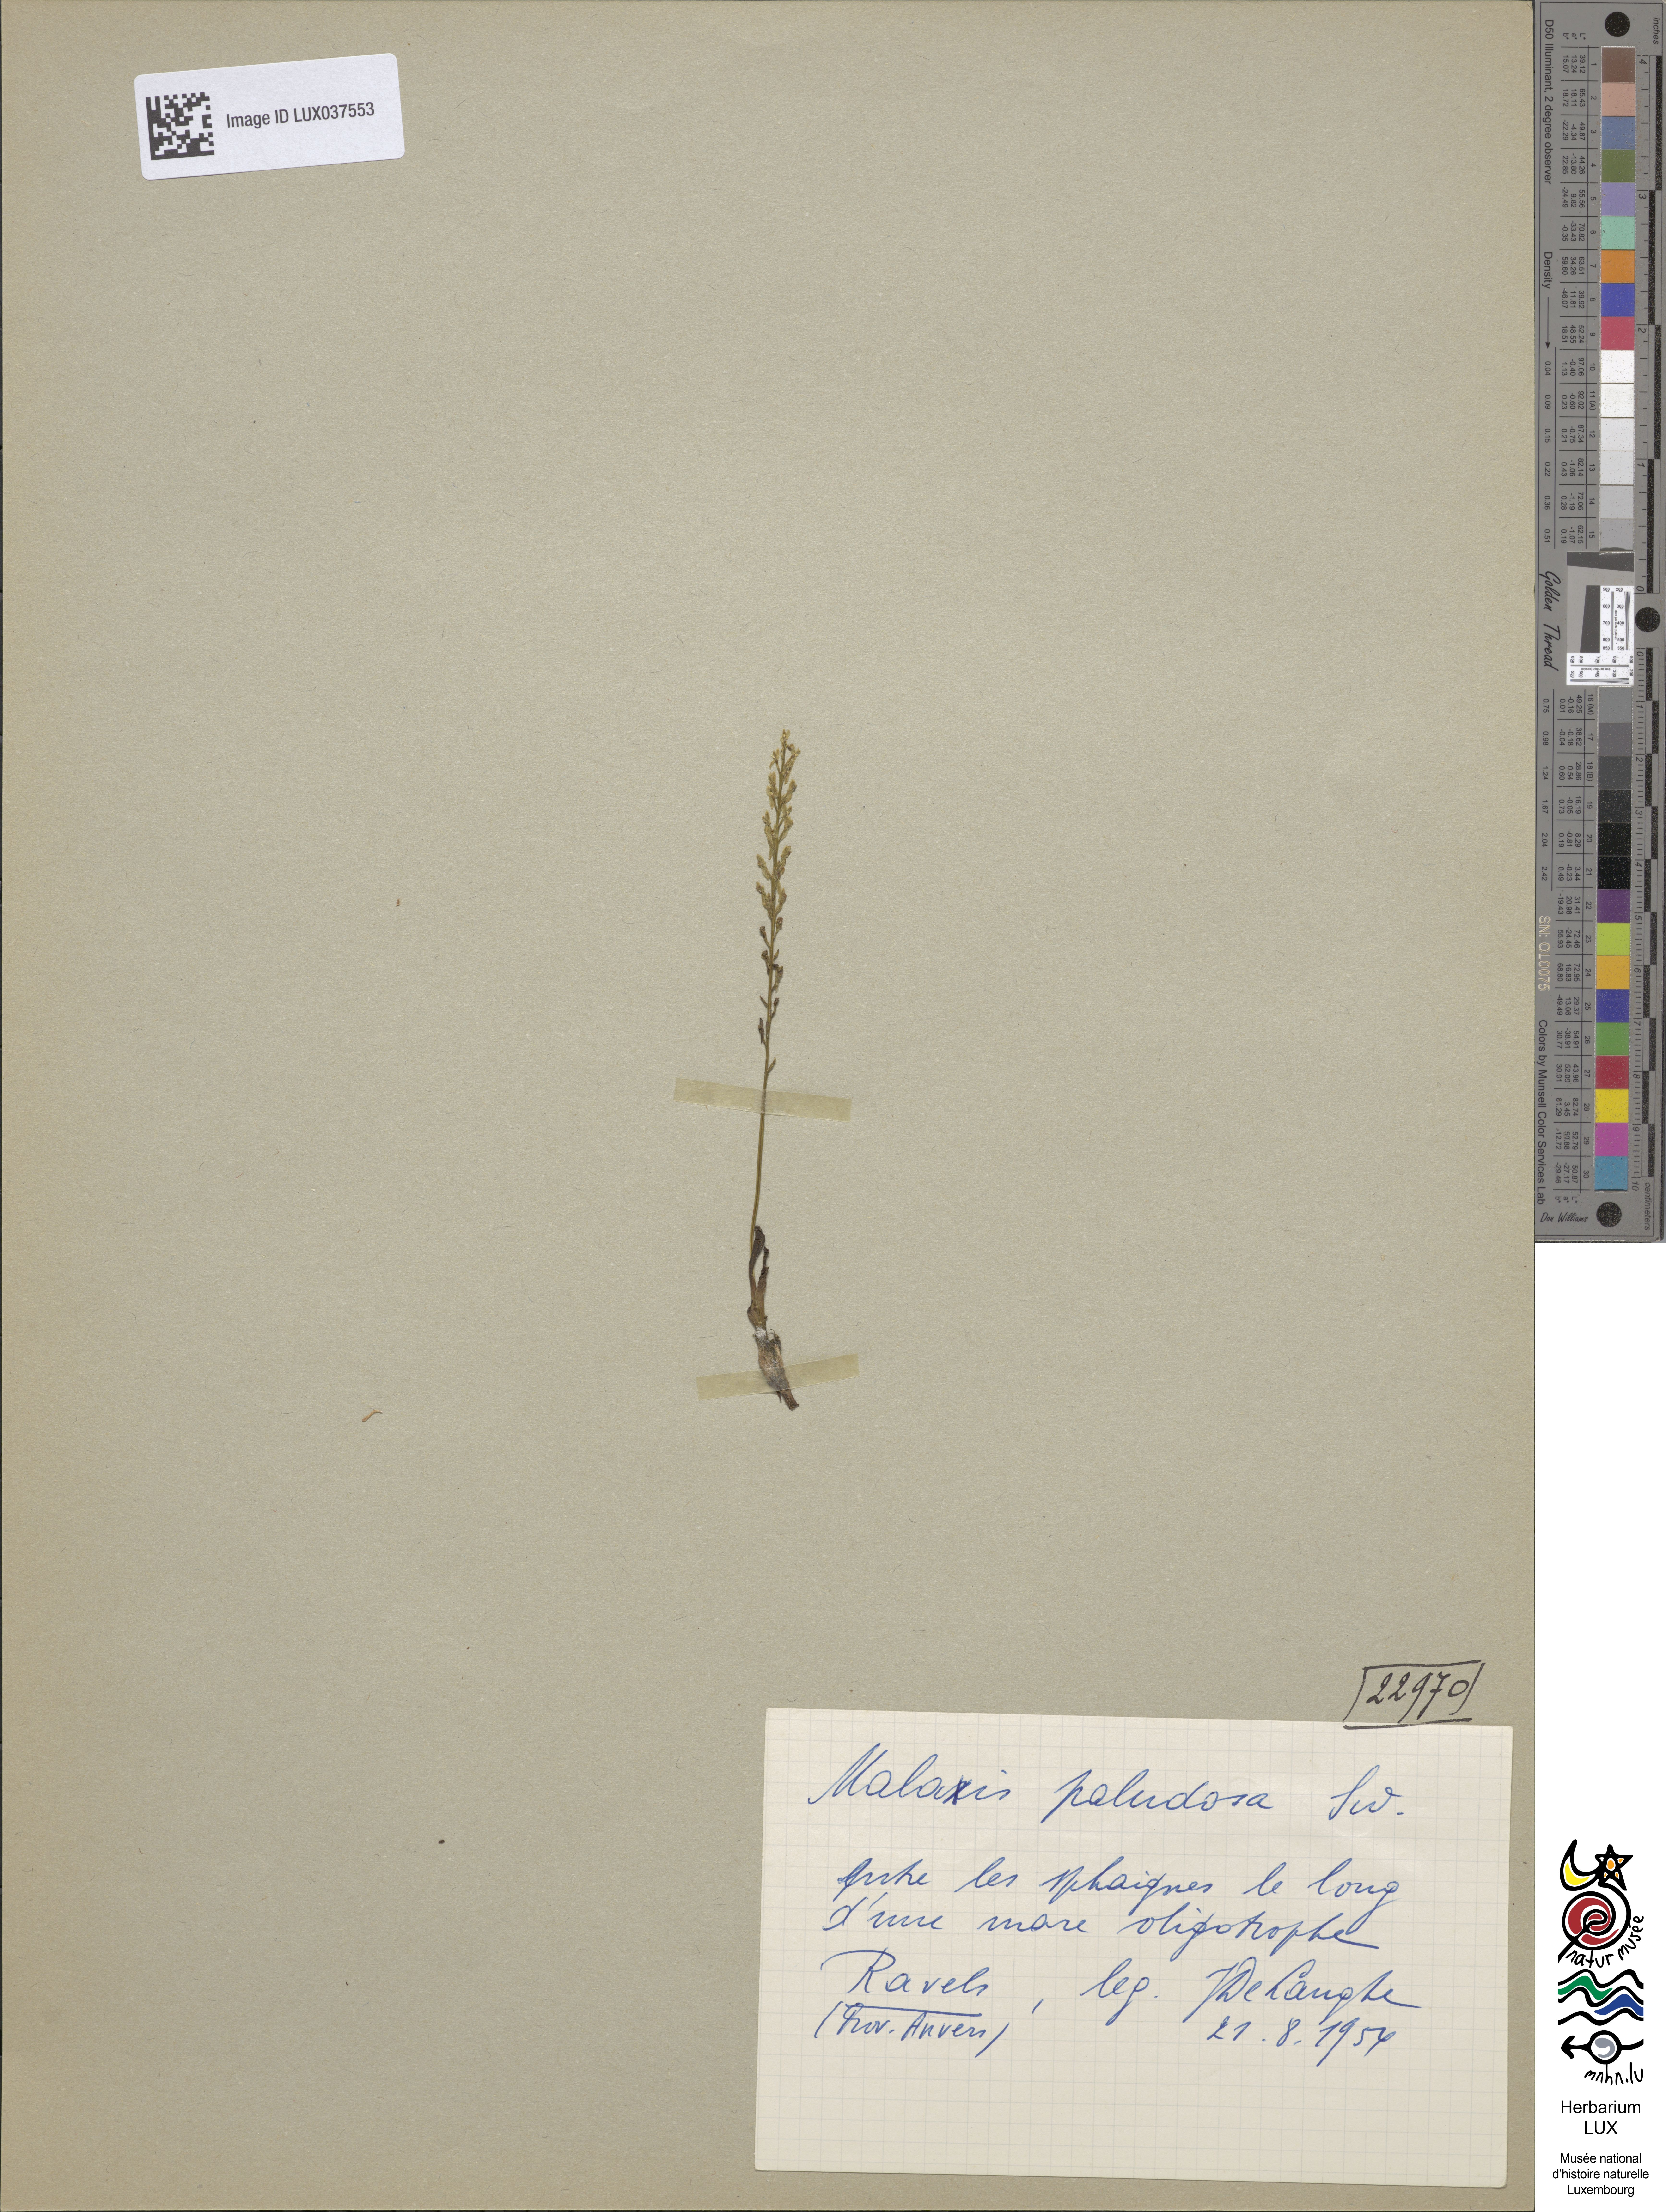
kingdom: Plantae
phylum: Tracheophyta
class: Liliopsida
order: Asparagales
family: Orchidaceae
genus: Hammarbya
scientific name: Hammarbya paludosa
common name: Bog orchid
